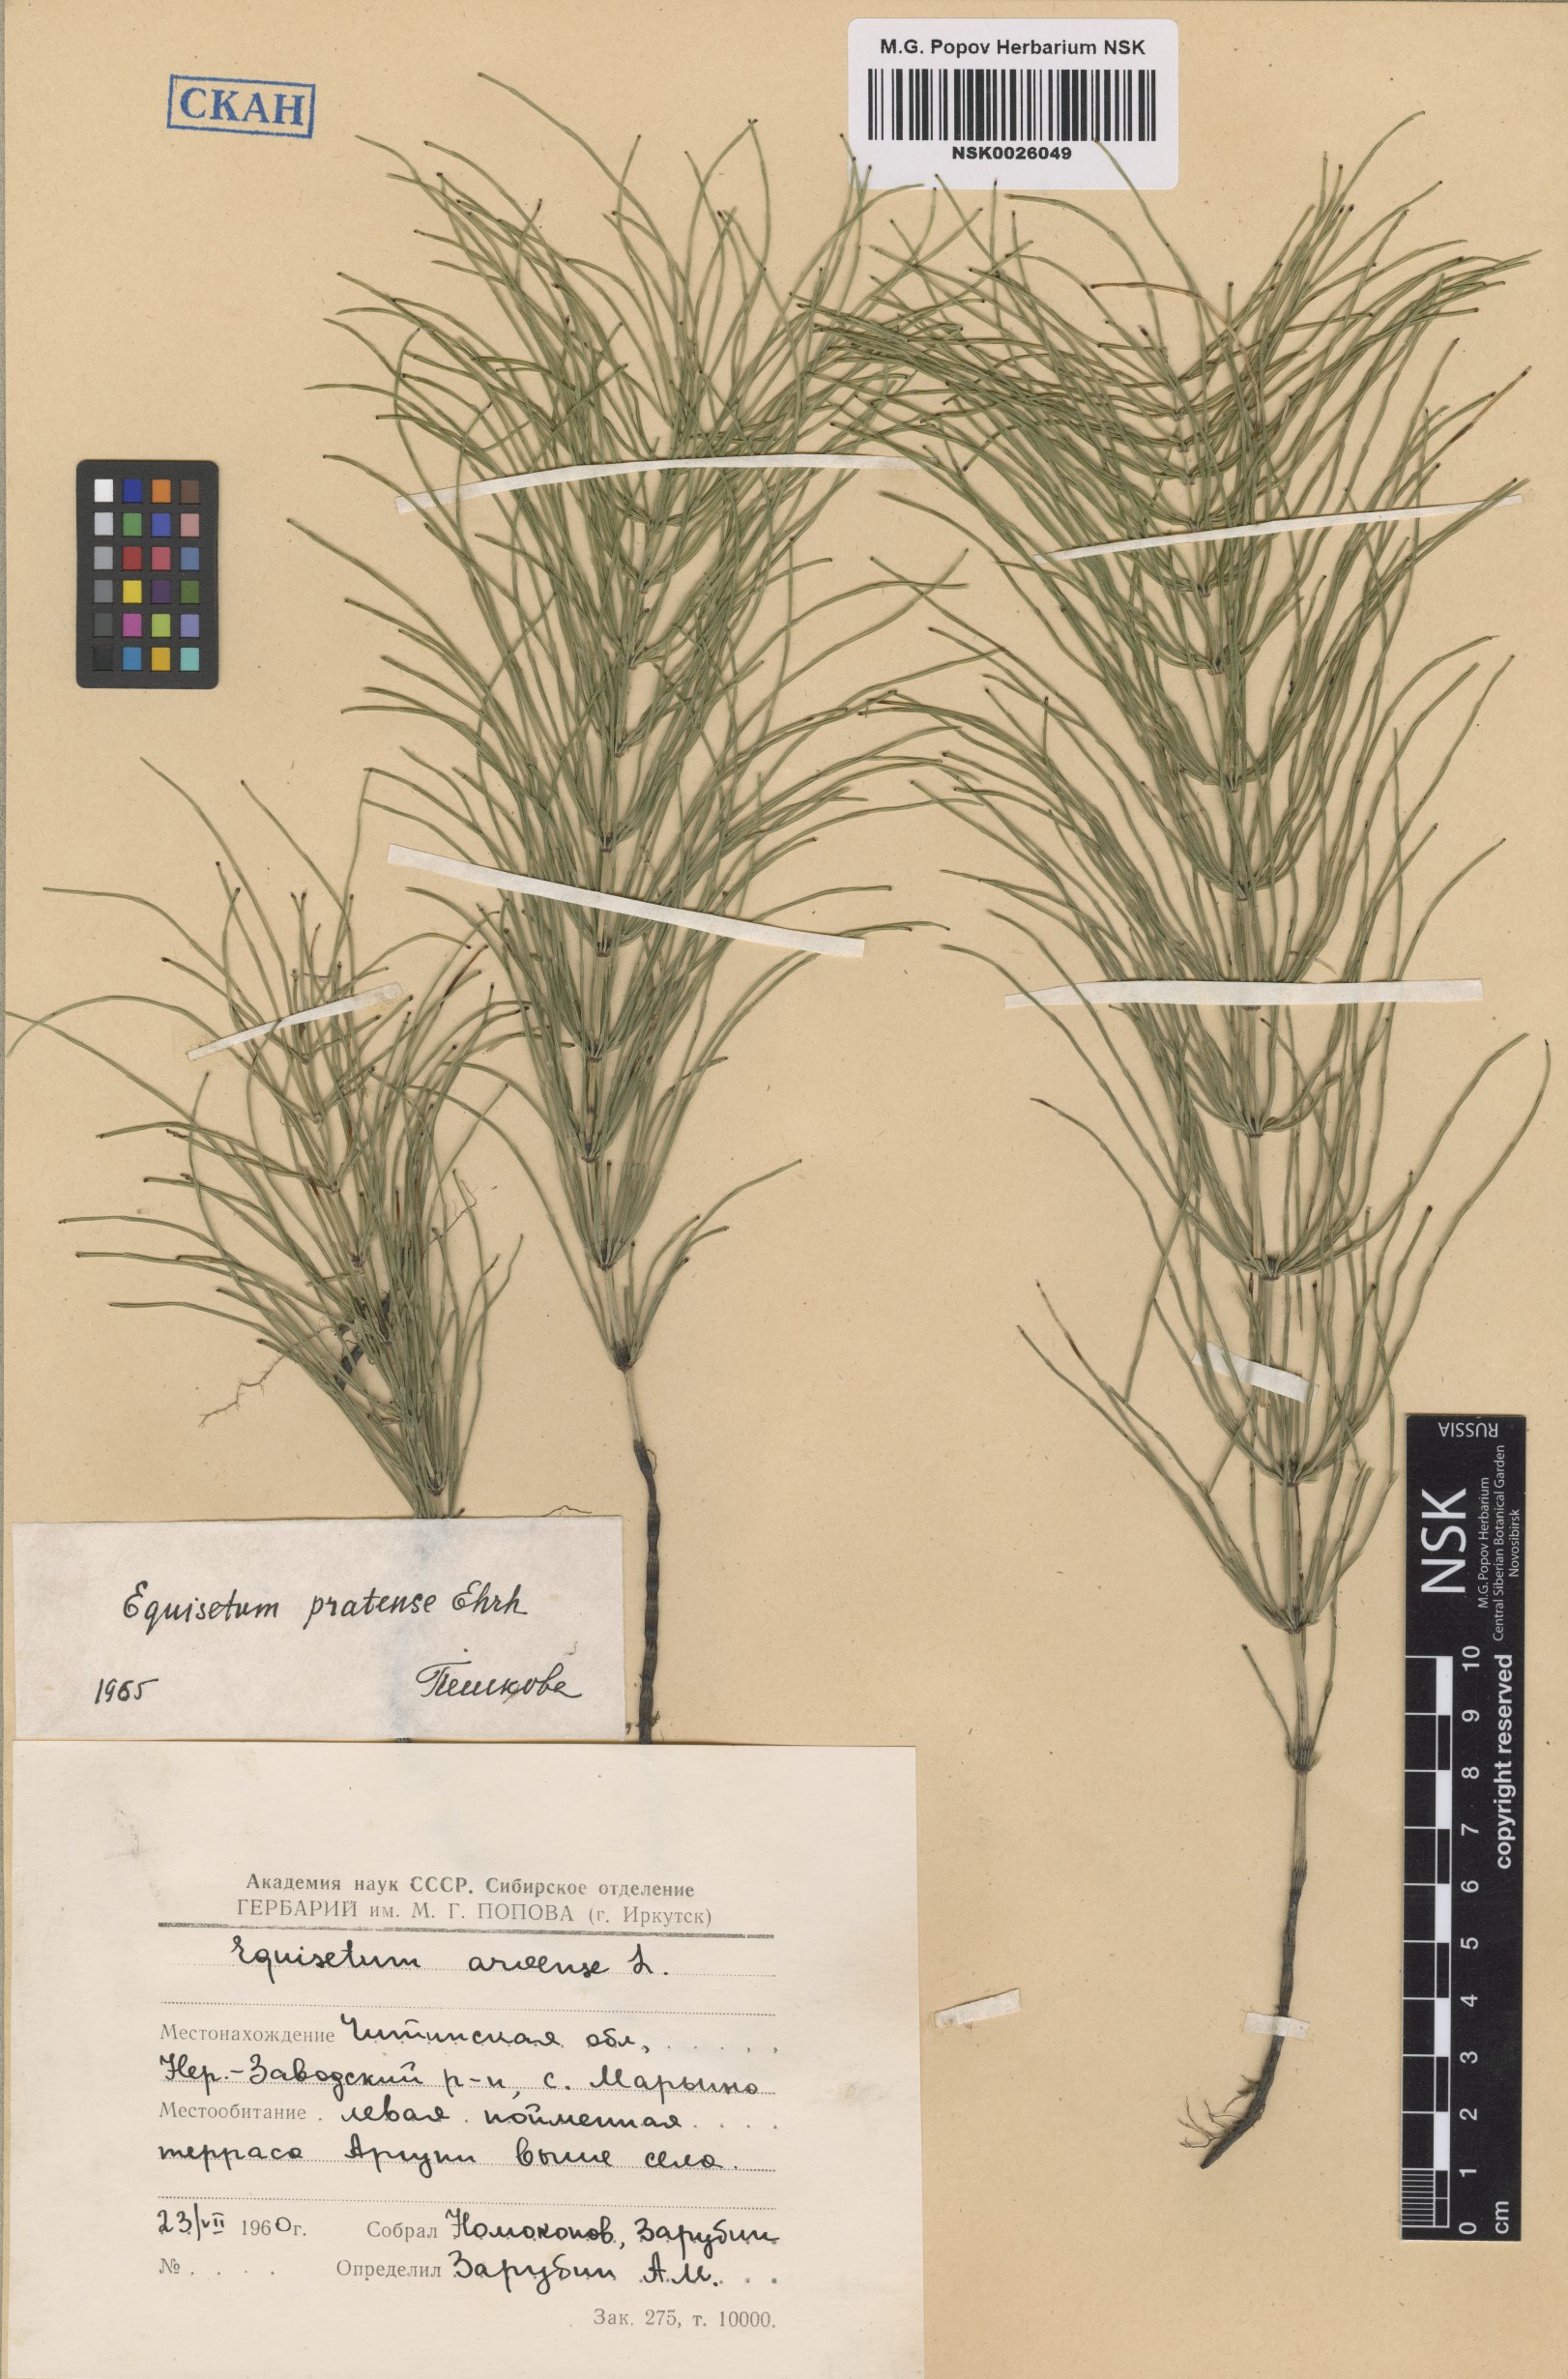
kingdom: Plantae
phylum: Tracheophyta
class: Polypodiopsida
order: Equisetales
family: Equisetaceae
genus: Equisetum
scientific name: Equisetum pratense
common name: Meadow horsetail
